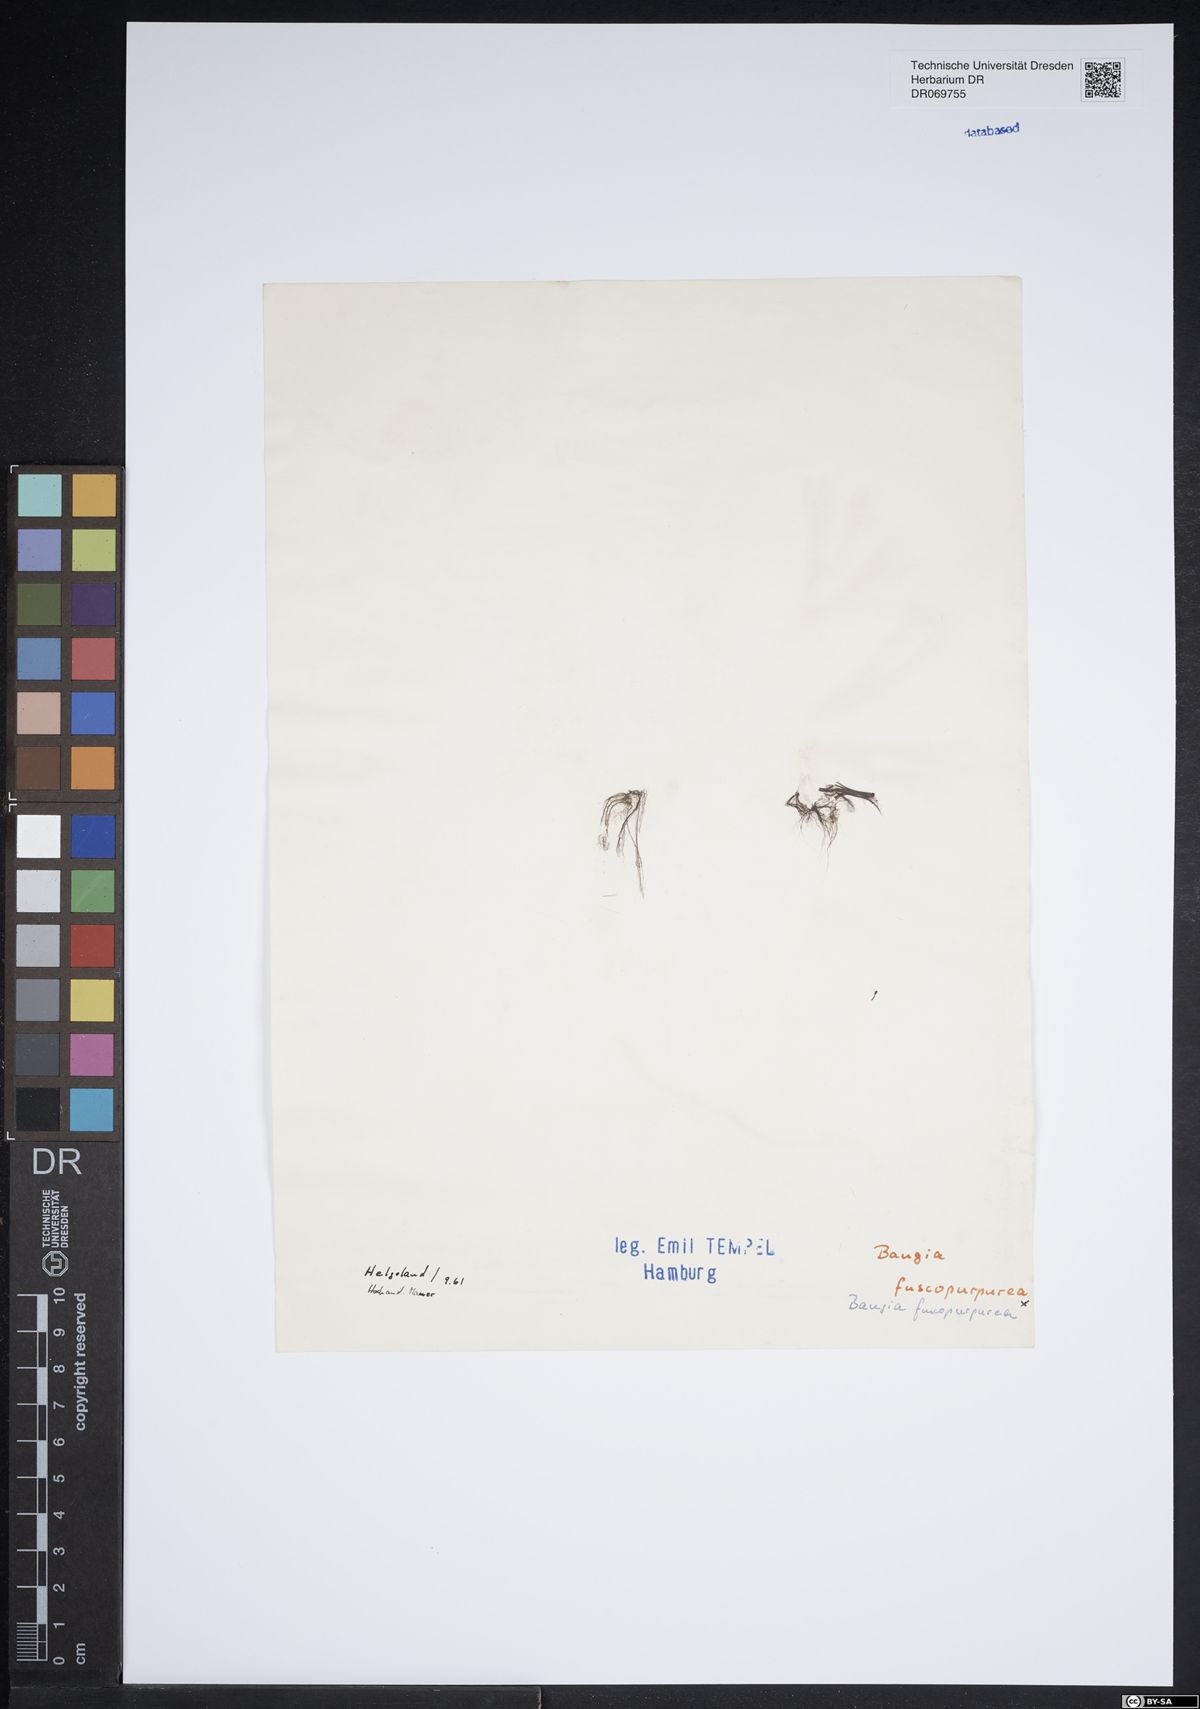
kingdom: Plantae
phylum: Rhodophyta
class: Bangiophyceae
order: Bangiales
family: Bangiaceae
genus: Bangia
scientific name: Bangia fuscopurpurea
